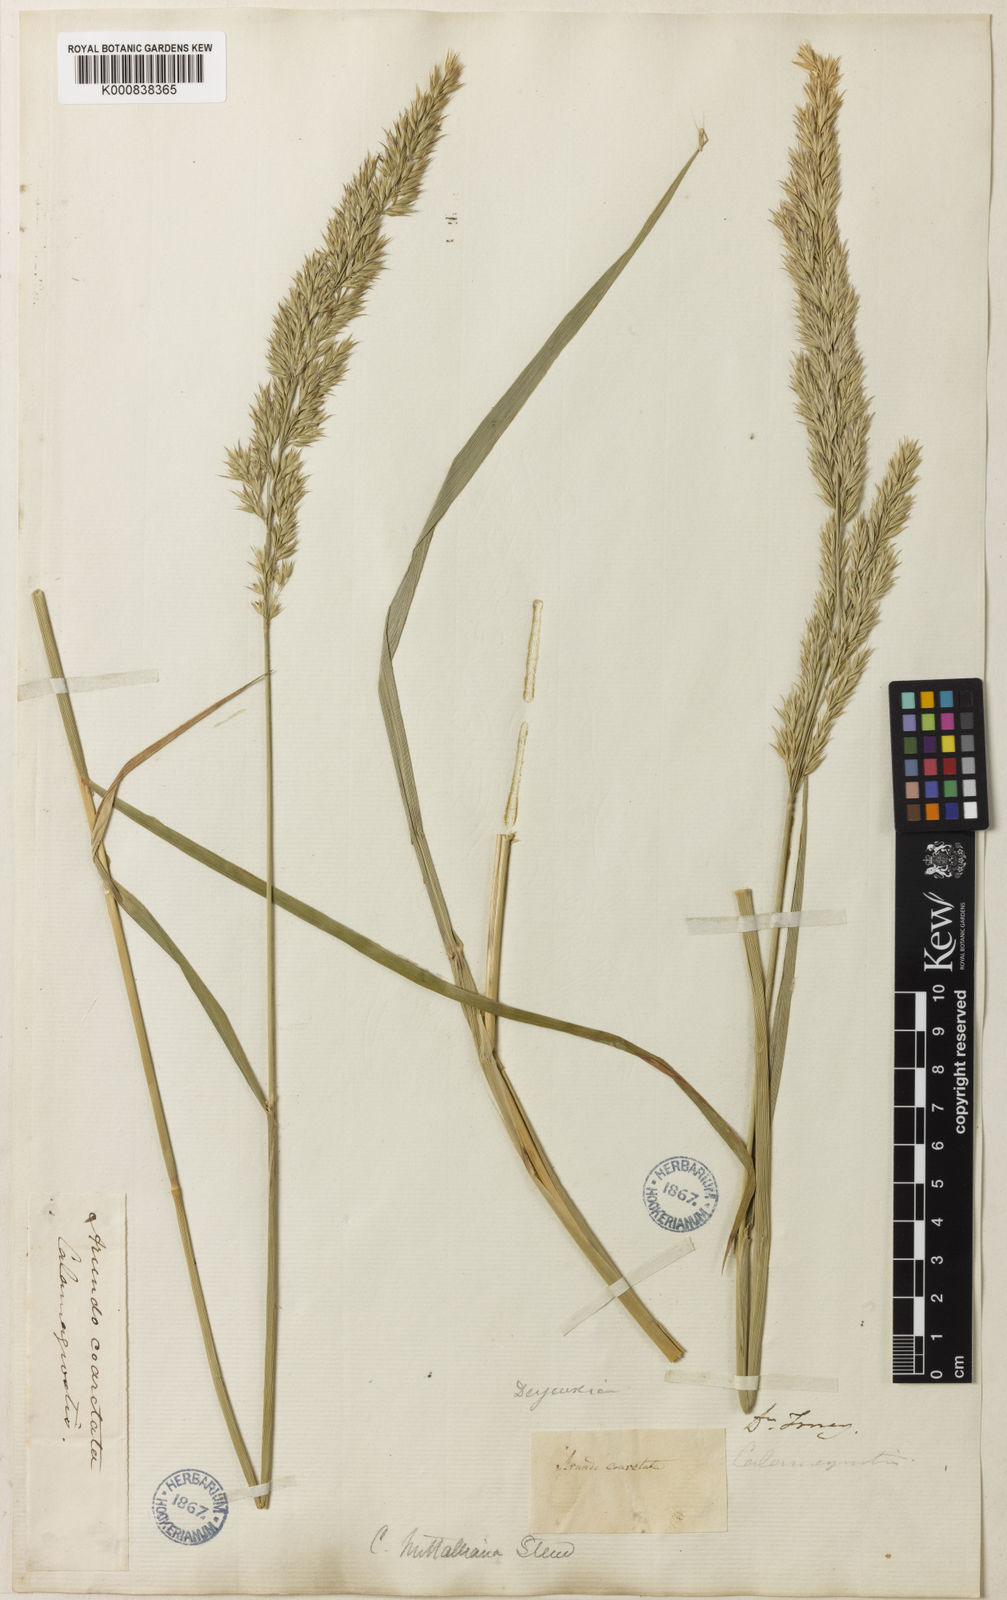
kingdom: Plantae
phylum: Tracheophyta
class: Liliopsida
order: Poales
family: Poaceae
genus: Calamagrostis
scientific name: Calamagrostis canadensis
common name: Canada bluejoint
